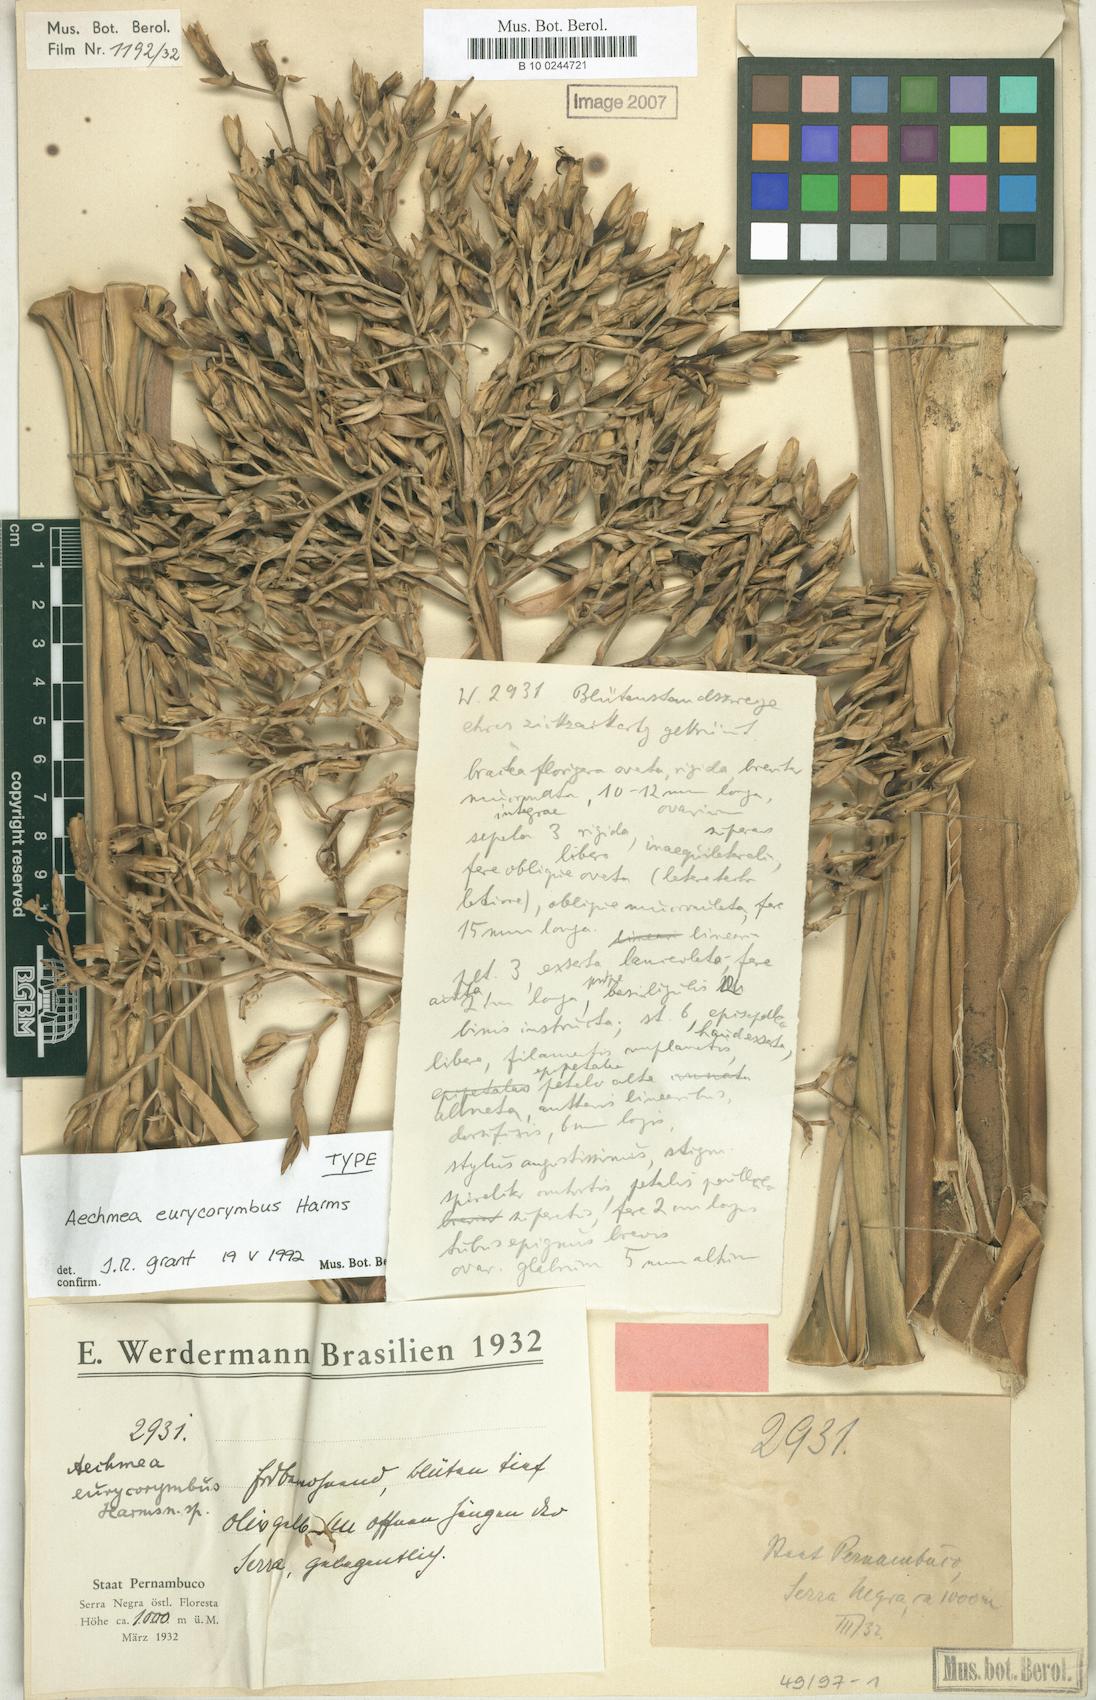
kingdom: Plantae
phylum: Tracheophyta
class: Liliopsida
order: Poales
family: Bromeliaceae
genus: Aechmea
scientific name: Aechmea eurycorymbus
